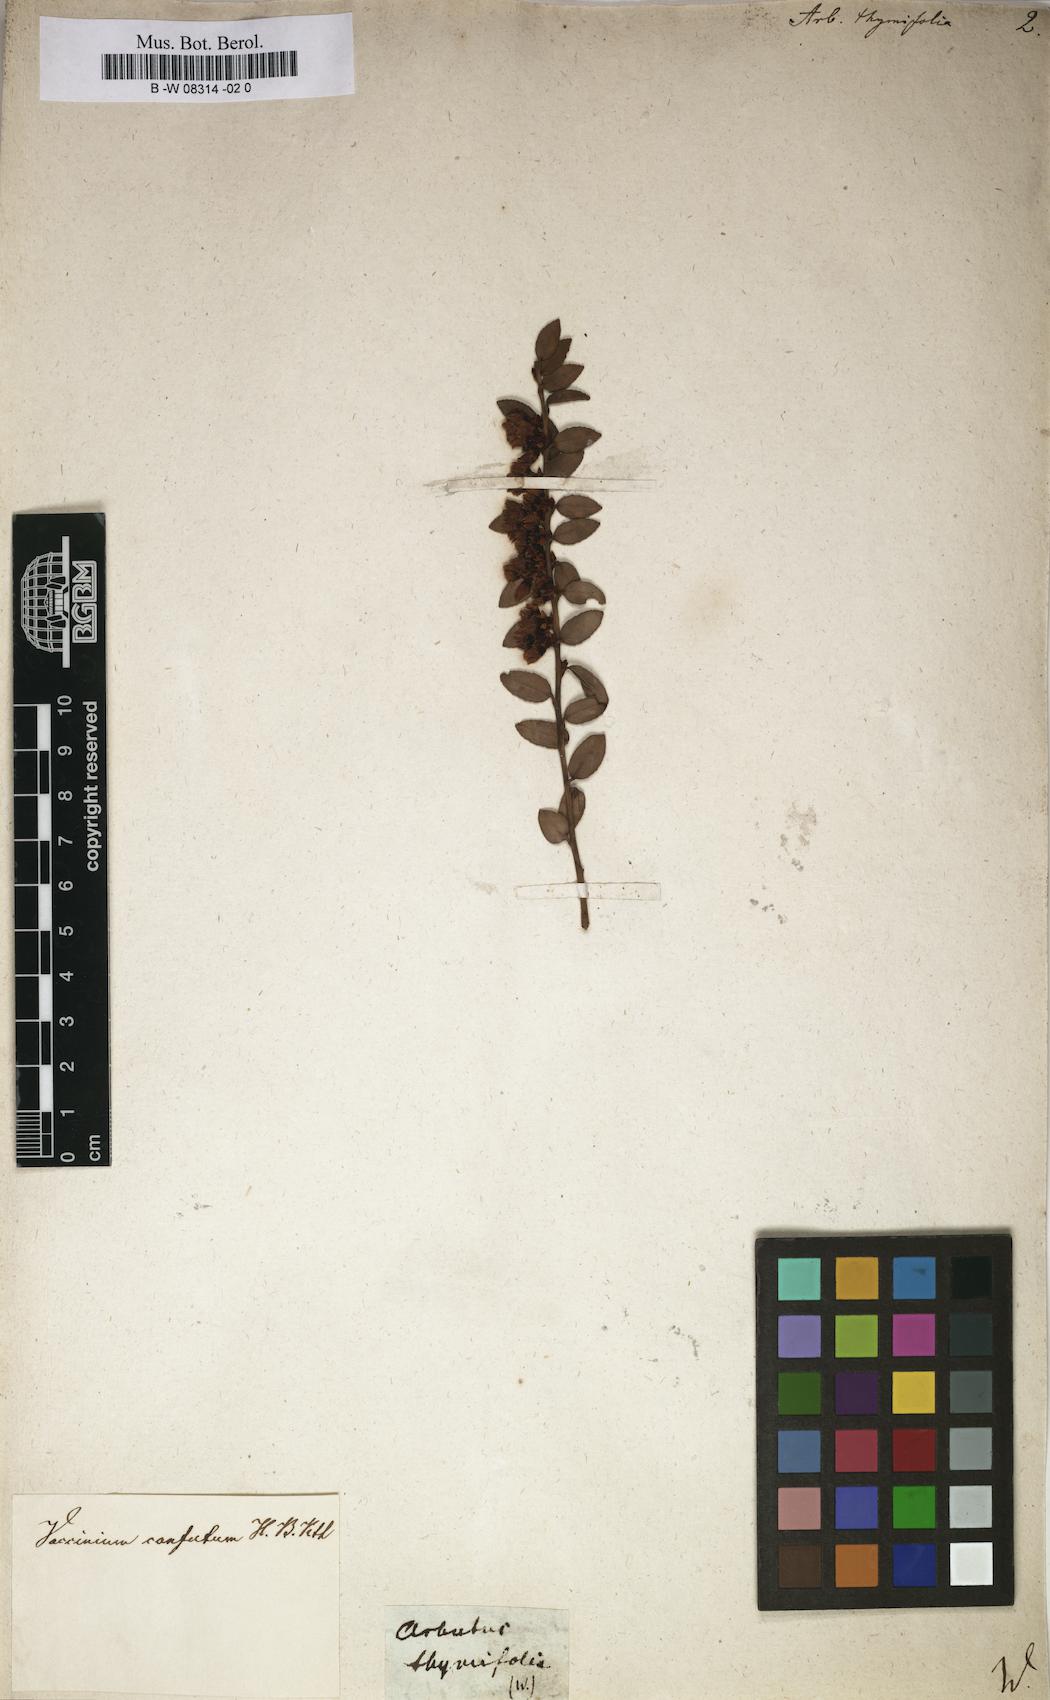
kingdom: Plantae
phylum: Tracheophyta
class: Magnoliopsida
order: Ericales
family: Ericaceae
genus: Gaultheria
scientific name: Gaultheria hispidula
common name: Cancer wintergreen
